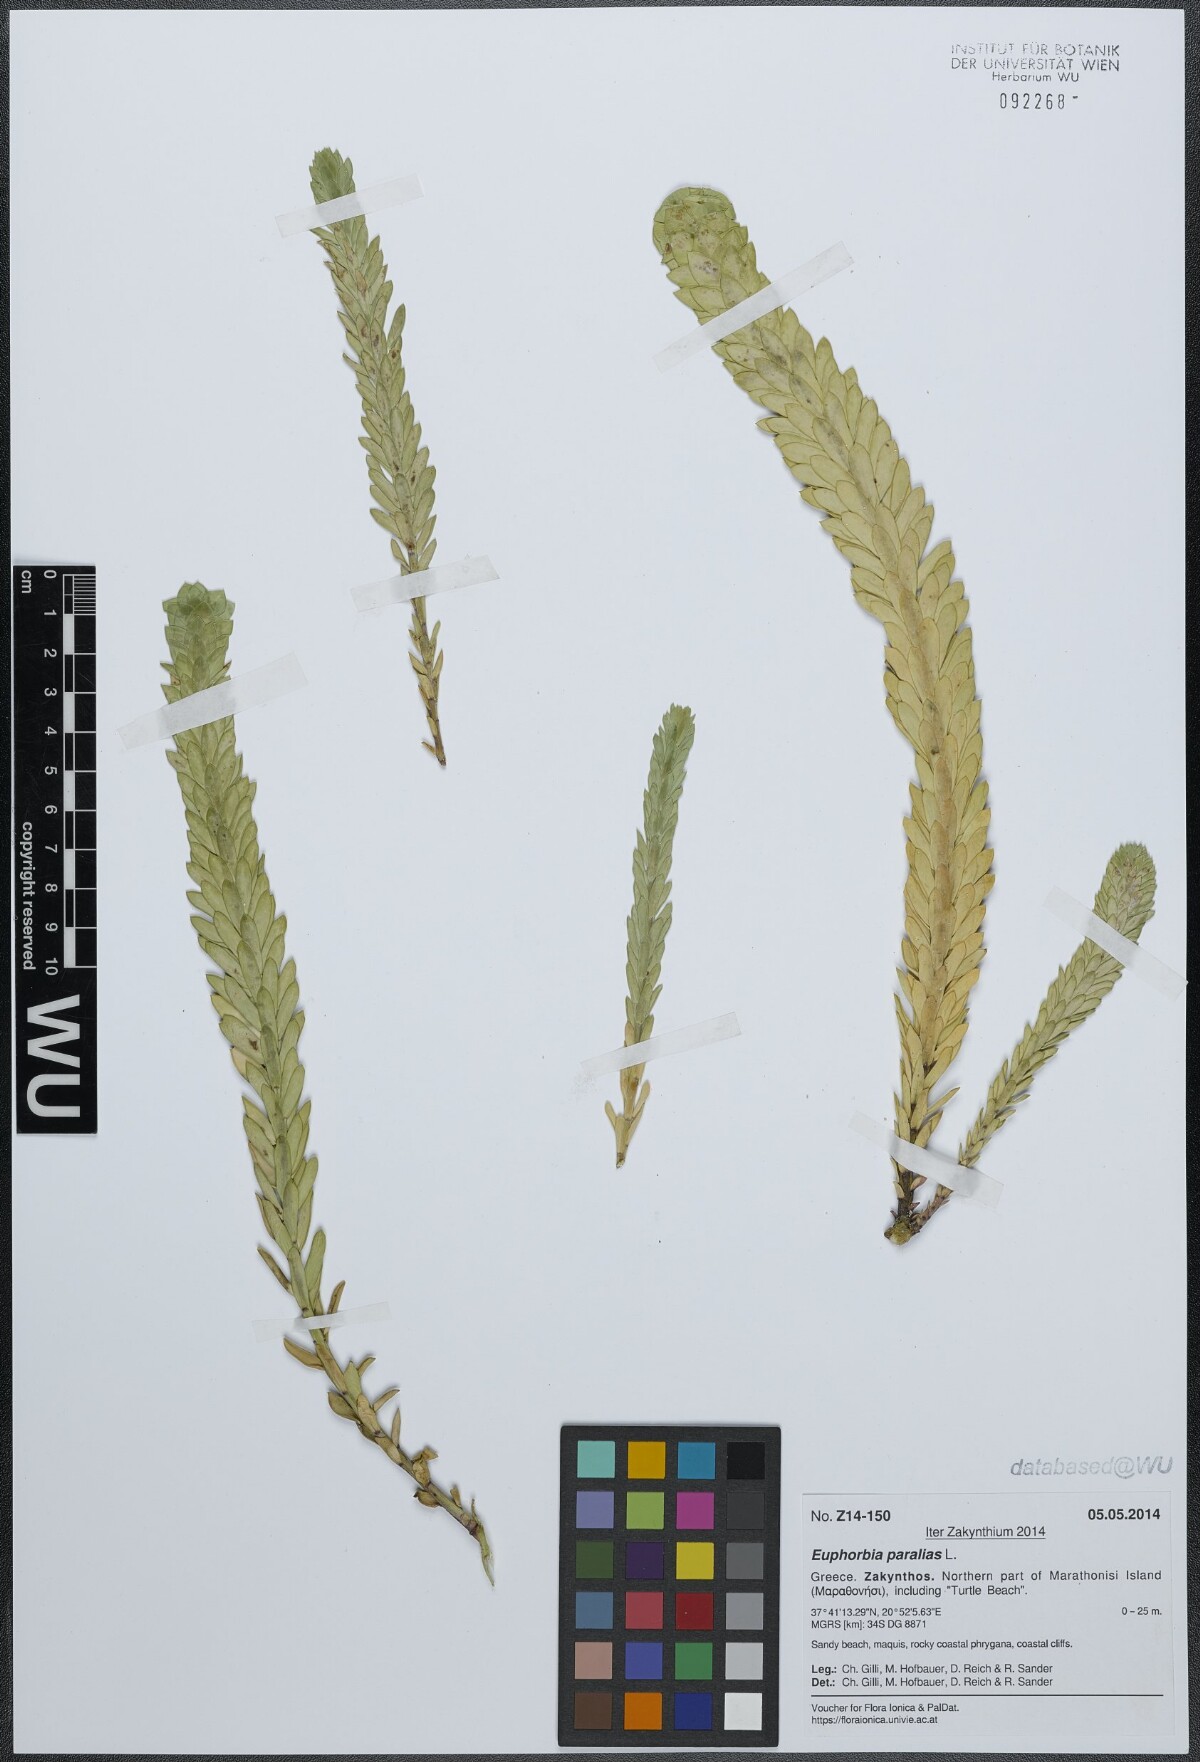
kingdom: Plantae
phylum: Tracheophyta
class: Magnoliopsida
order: Malpighiales
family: Euphorbiaceae
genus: Euphorbia
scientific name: Euphorbia paralias
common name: Sea spurge
